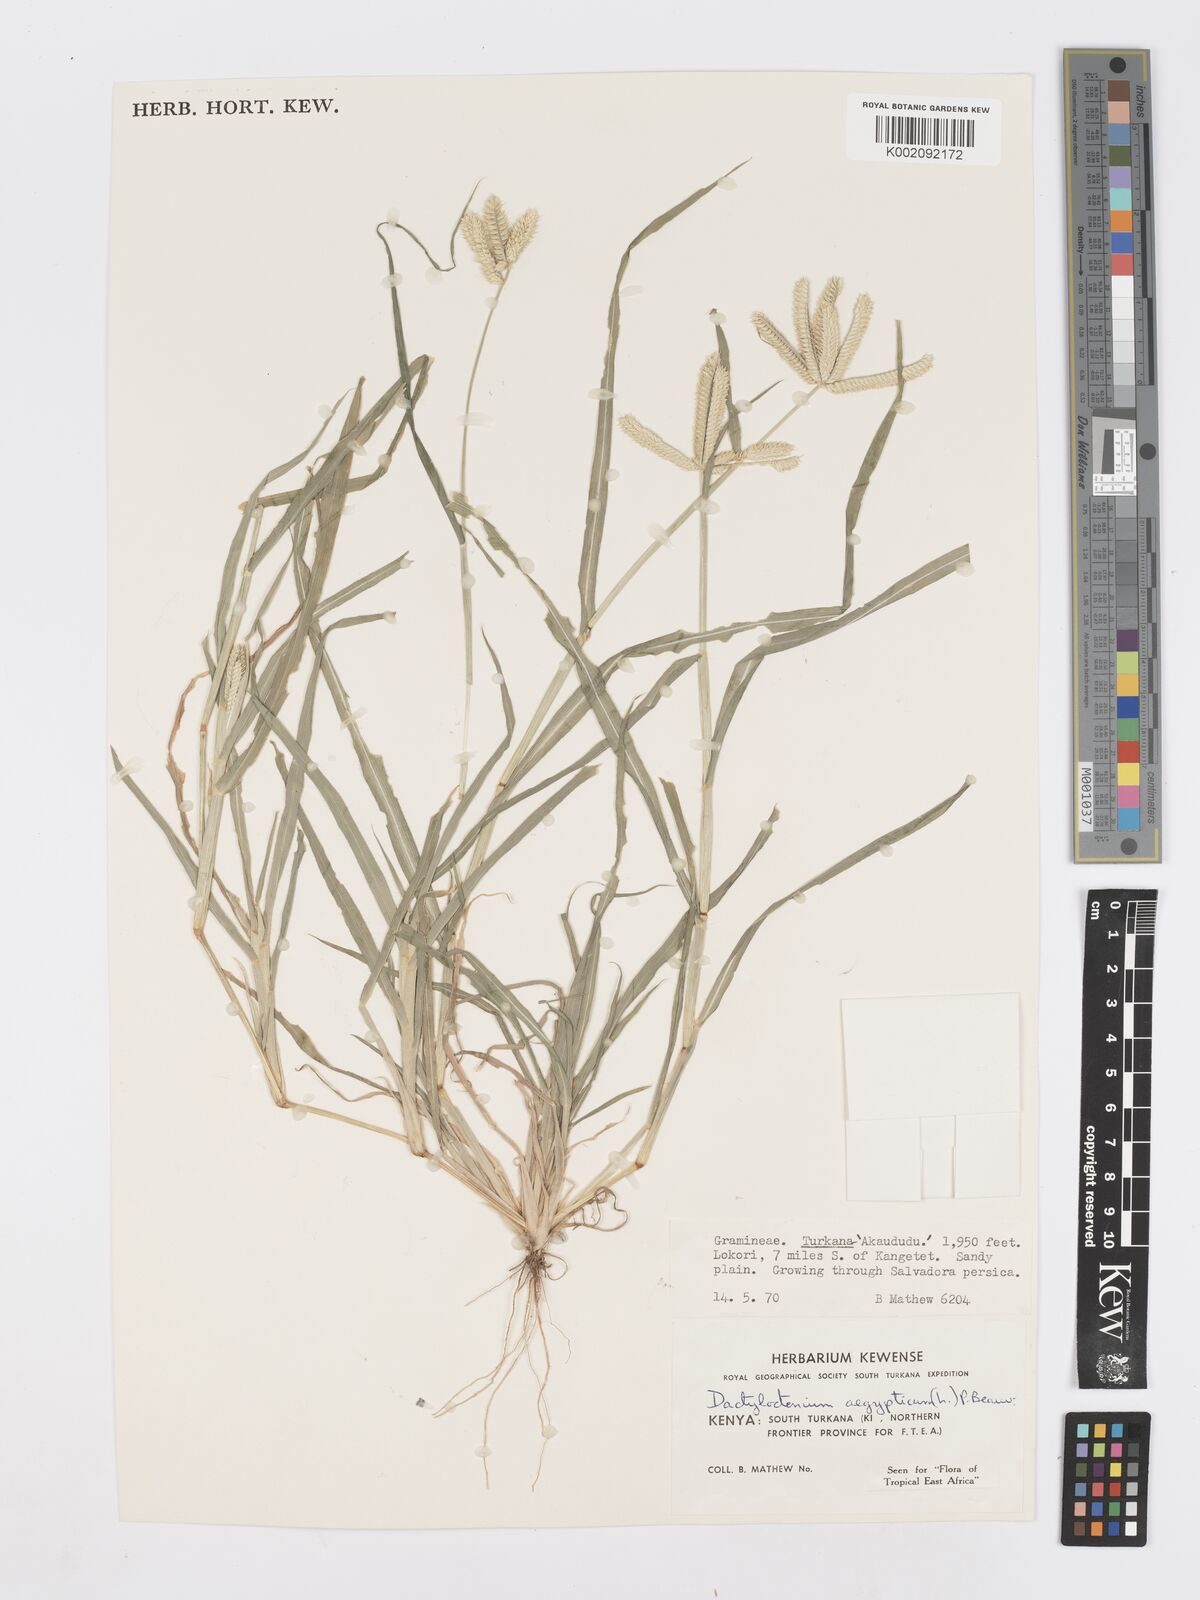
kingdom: Plantae
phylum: Tracheophyta
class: Liliopsida
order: Poales
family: Poaceae
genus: Dactyloctenium
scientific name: Dactyloctenium aegyptium
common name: Egyptian grass
